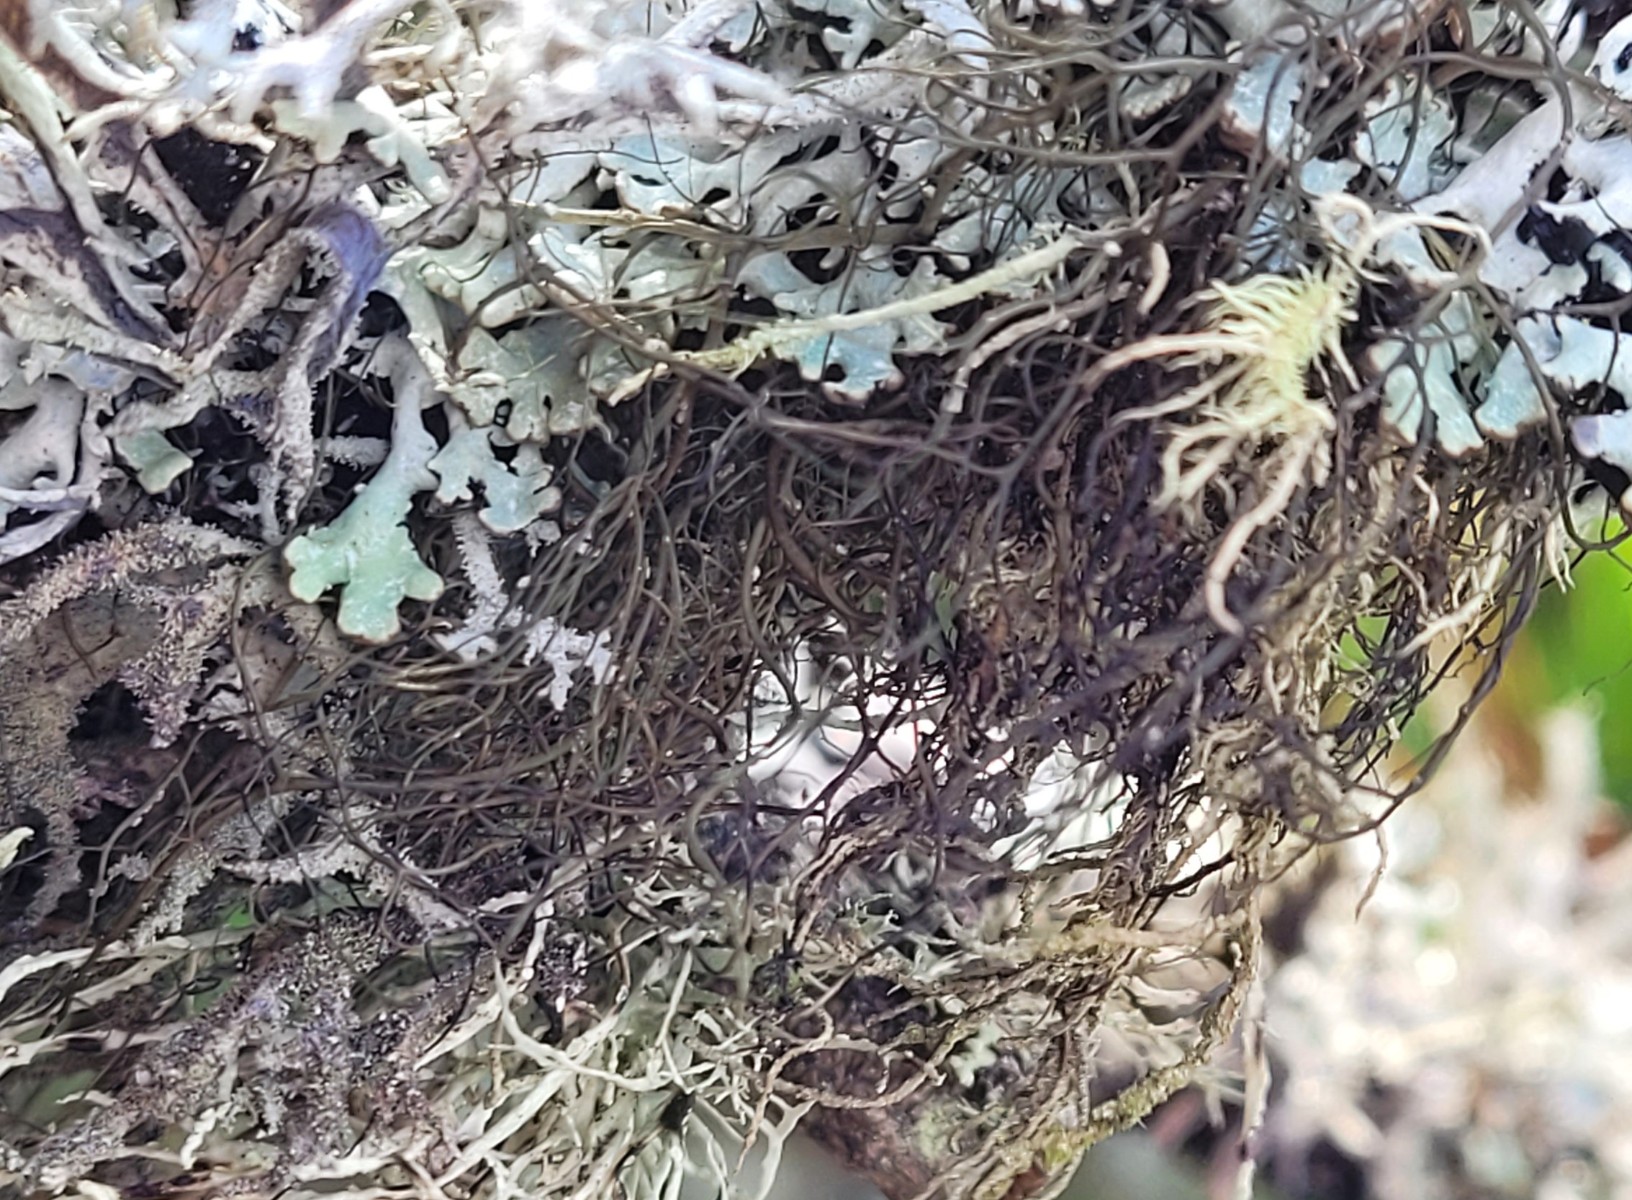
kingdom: Fungi
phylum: Ascomycota
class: Lecanoromycetes
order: Lecanorales
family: Parmeliaceae
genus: Bryoria
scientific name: Bryoria
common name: almindelig mankelav
